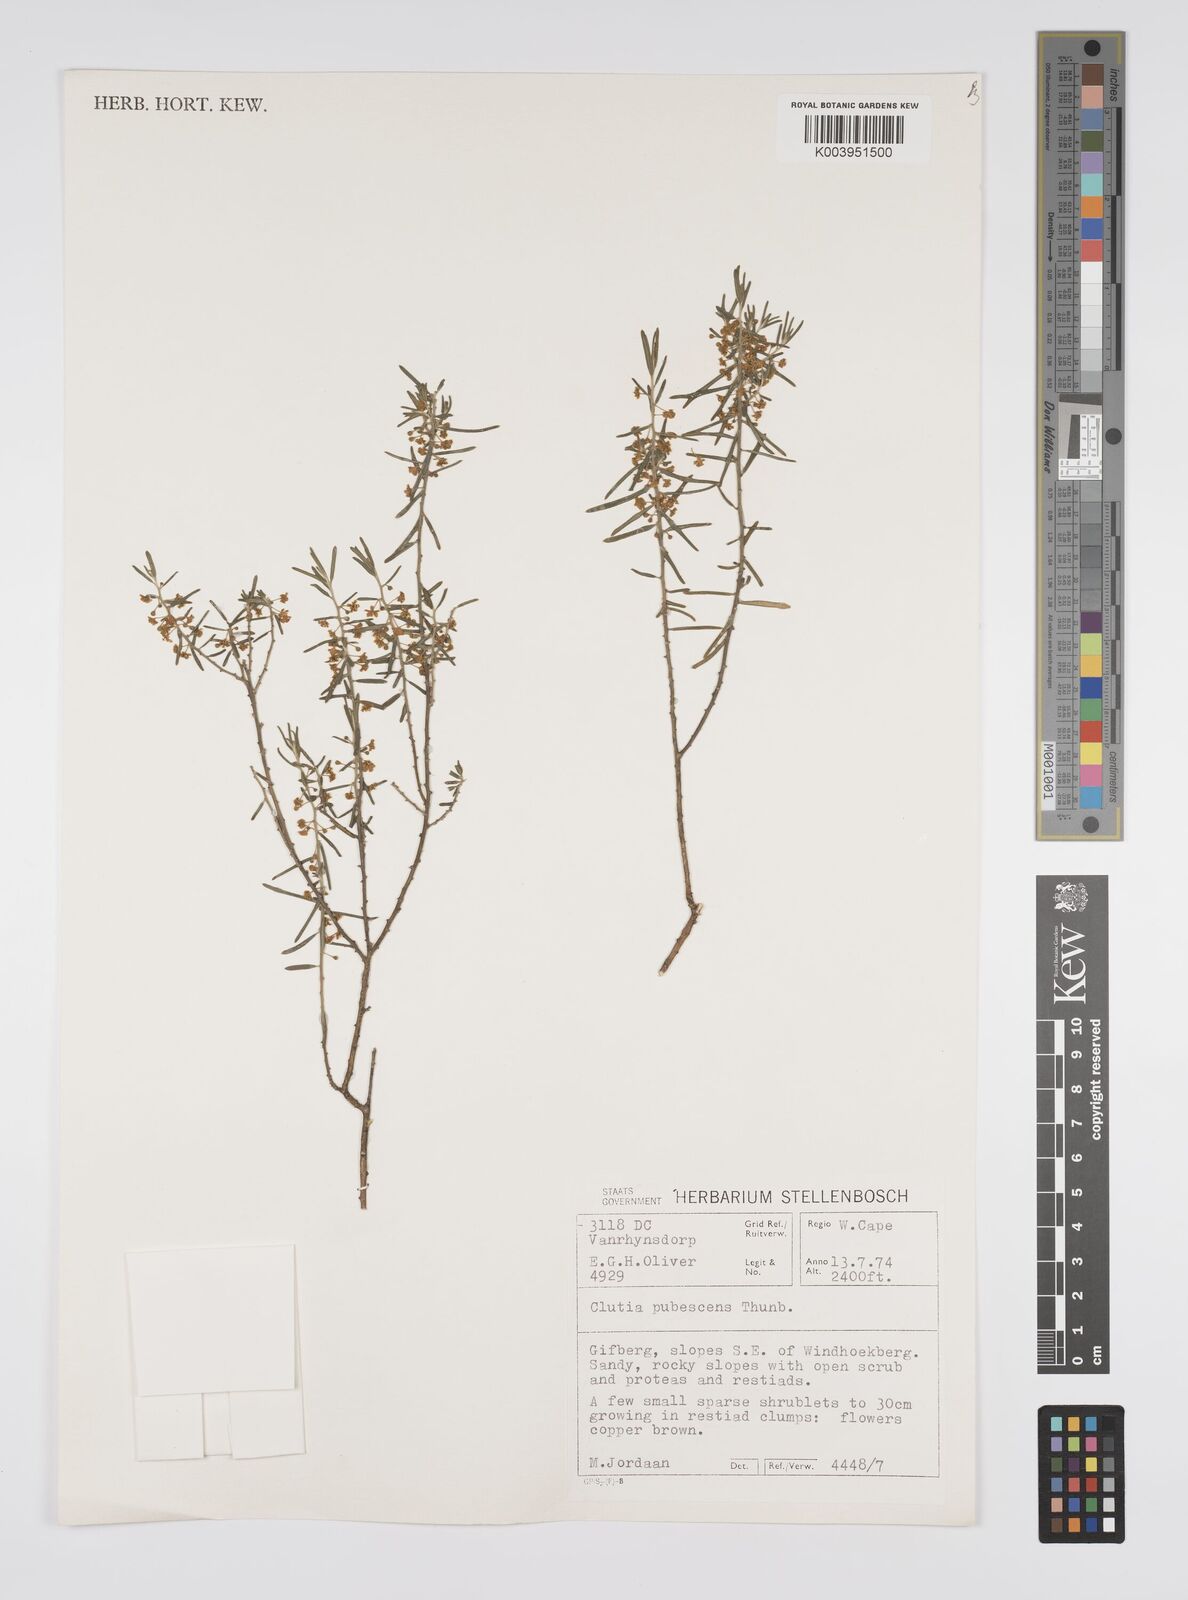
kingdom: Plantae
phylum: Tracheophyta
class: Magnoliopsida
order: Malpighiales
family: Peraceae
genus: Clutia
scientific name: Clutia
